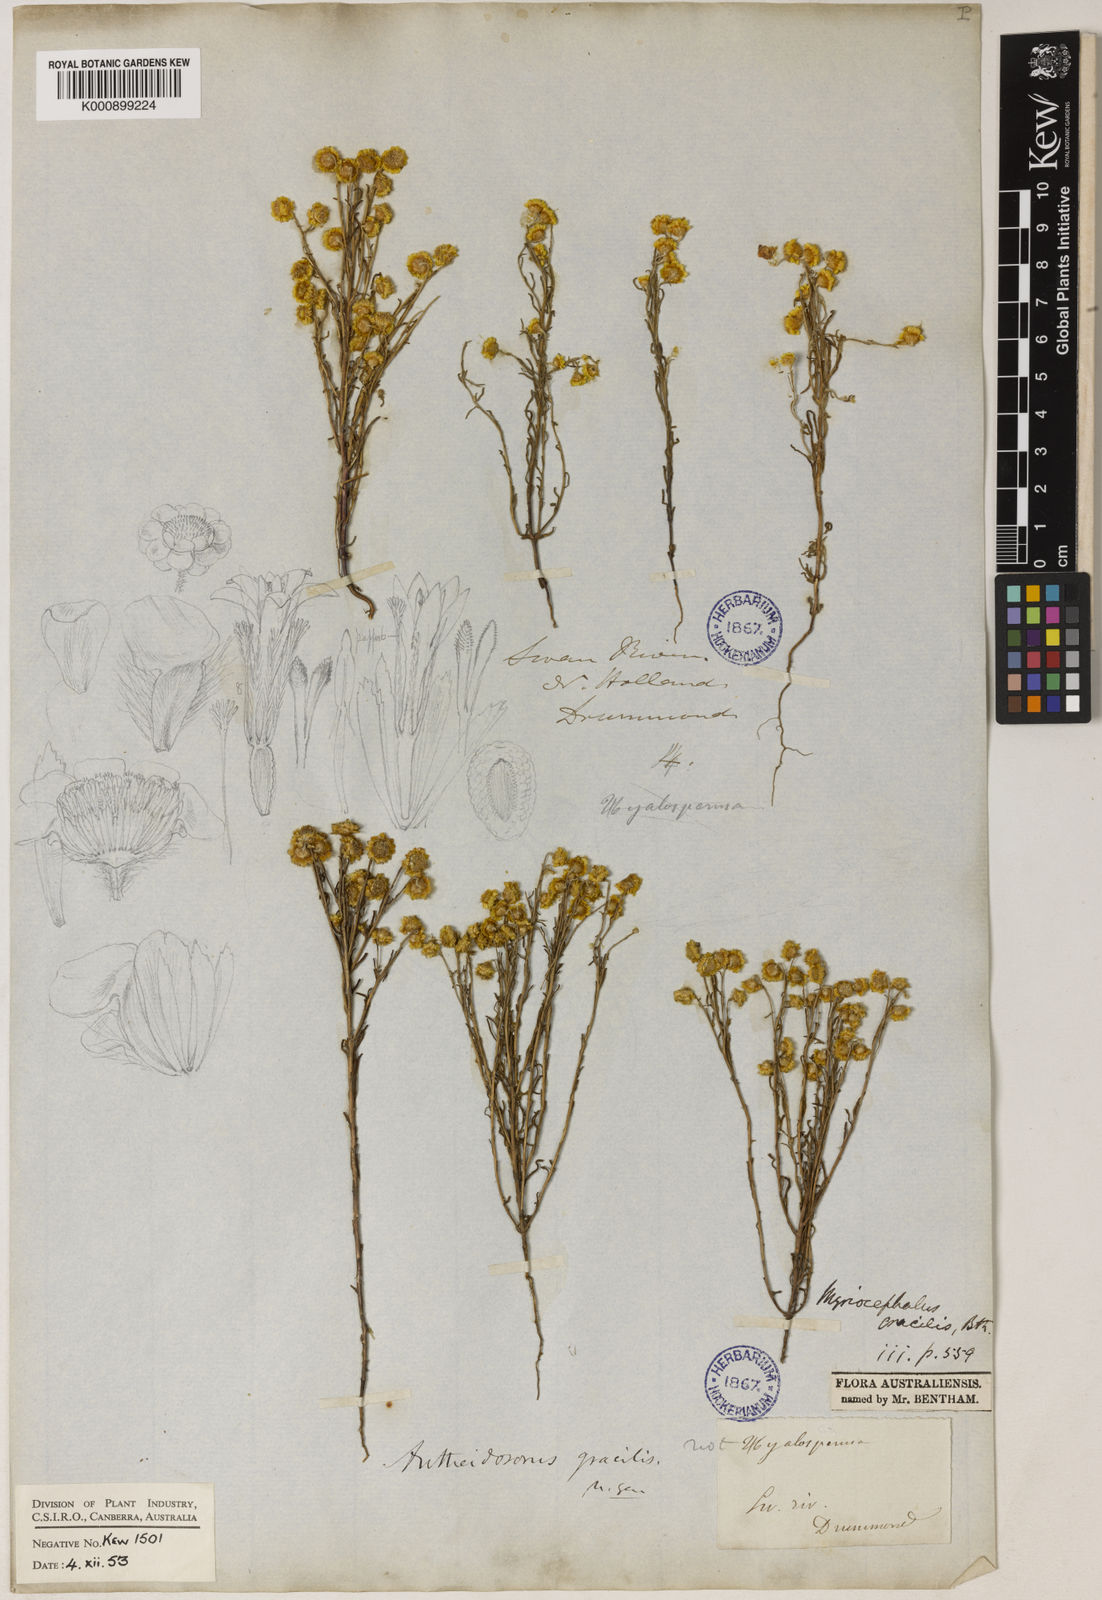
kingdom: Plantae
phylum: Tracheophyta
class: Magnoliopsida
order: Asterales
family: Asteraceae
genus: Gilberta
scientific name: Gilberta
